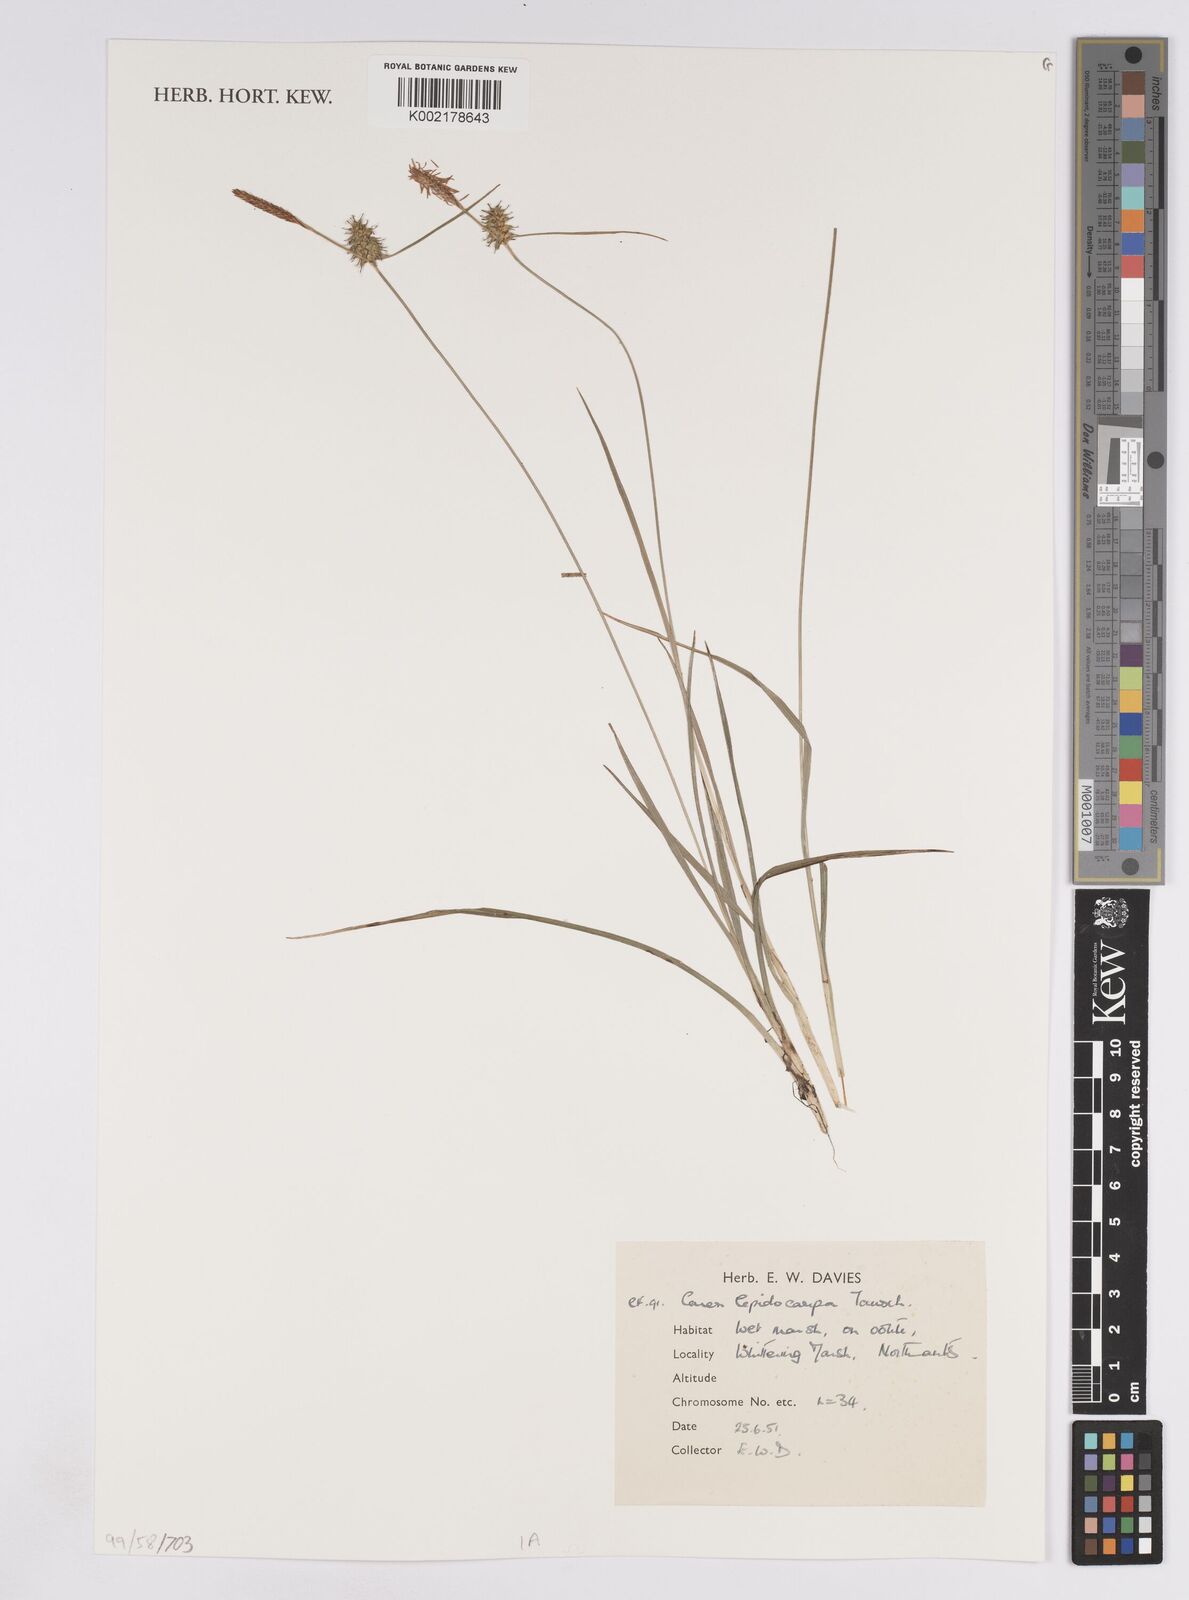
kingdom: Plantae
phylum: Tracheophyta
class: Liliopsida
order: Poales
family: Cyperaceae
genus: Carex
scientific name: Carex lepidocarpa
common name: Long-stalked yellow-sedge
